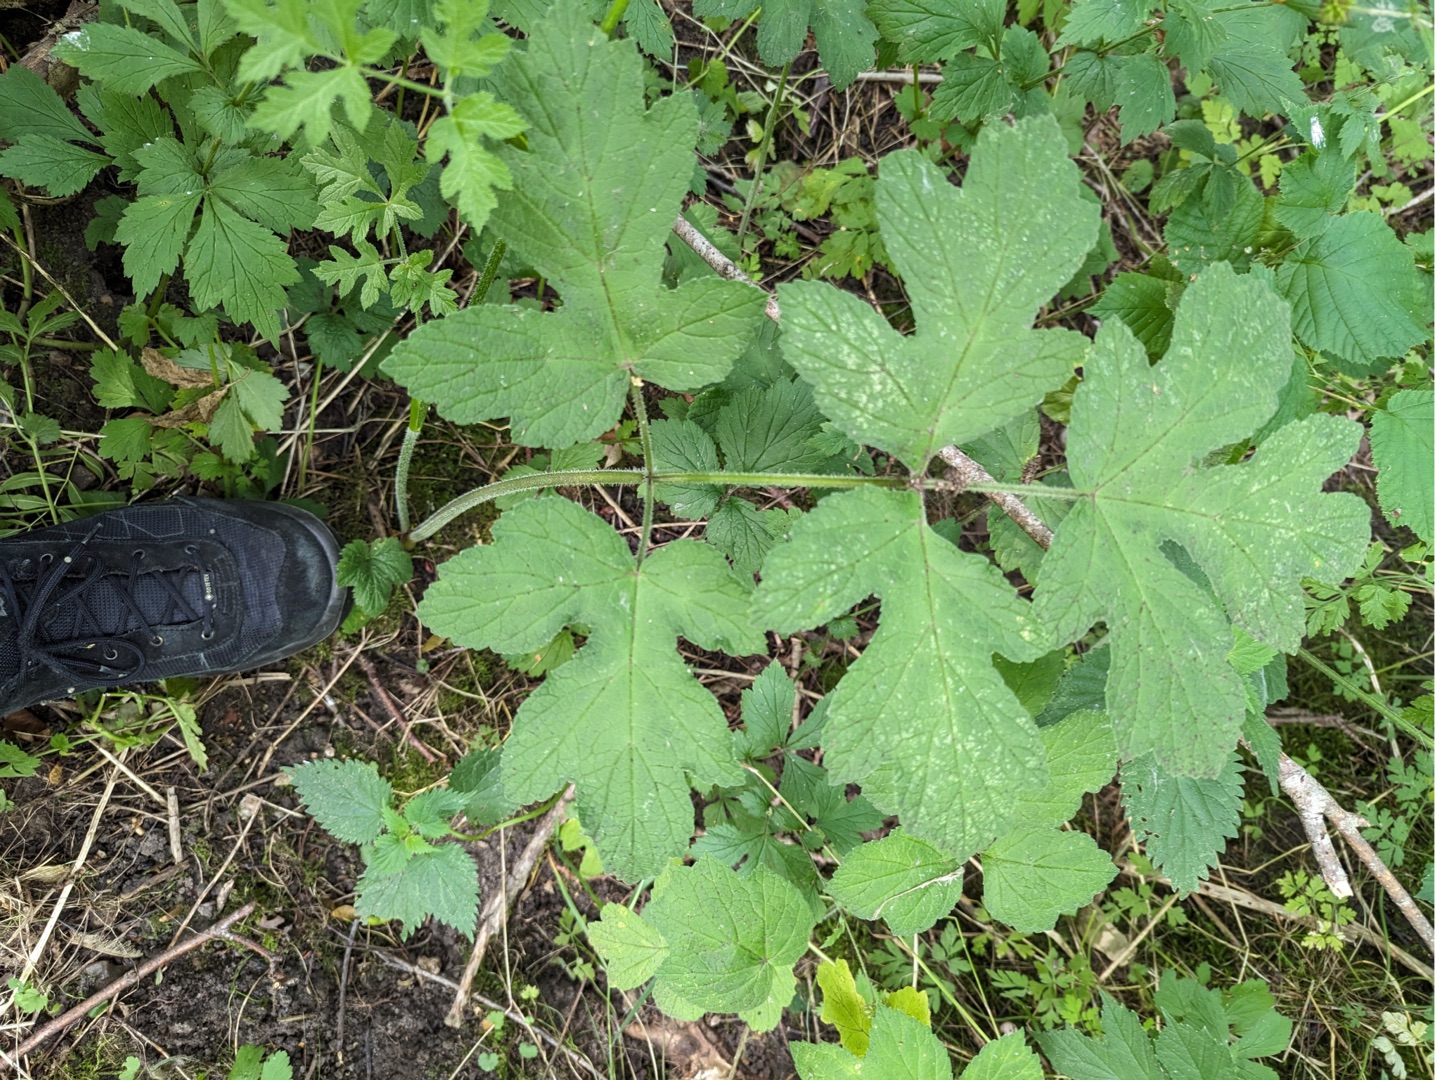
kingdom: Plantae
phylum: Tracheophyta
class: Magnoliopsida
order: Apiales
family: Apiaceae
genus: Heracleum
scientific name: Heracleum sphondylium
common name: Almindelig bjørneklo
